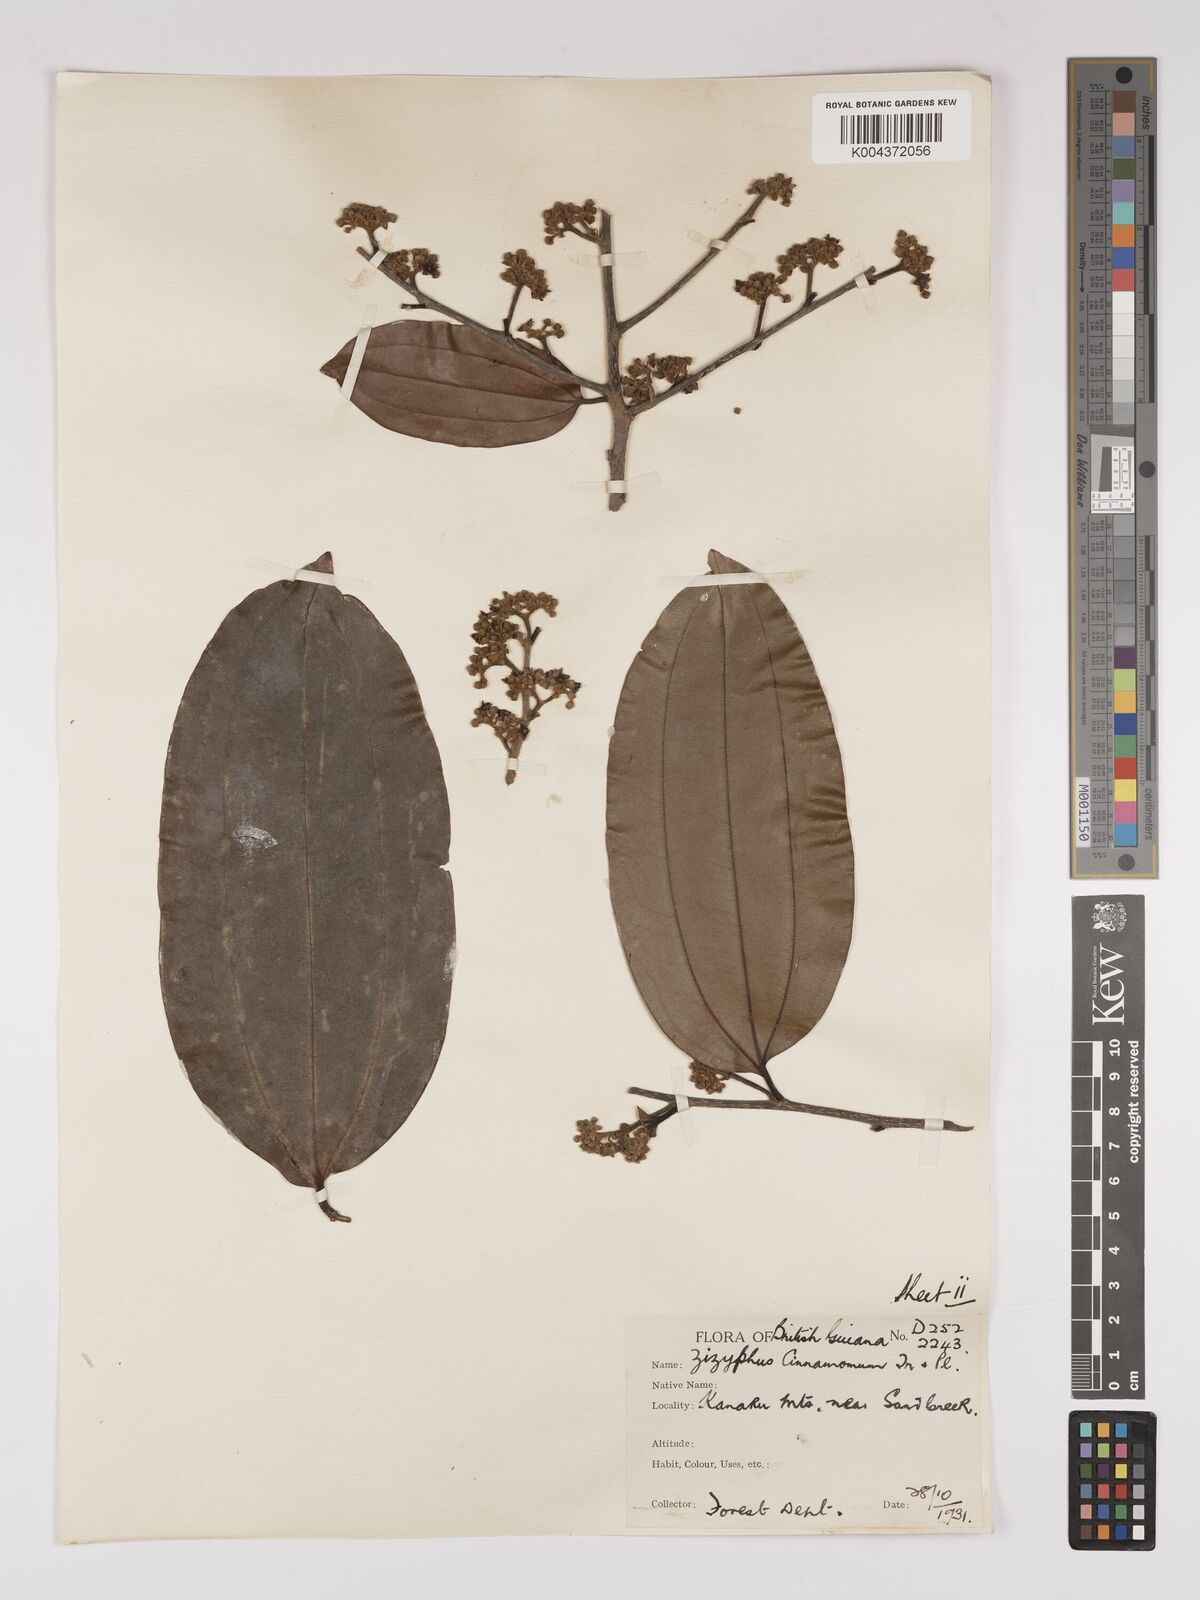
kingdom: Plantae
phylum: Tracheophyta
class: Magnoliopsida
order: Rosales
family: Rhamnaceae
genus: Sarcomphalus
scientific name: Sarcomphalus cinnamomum
